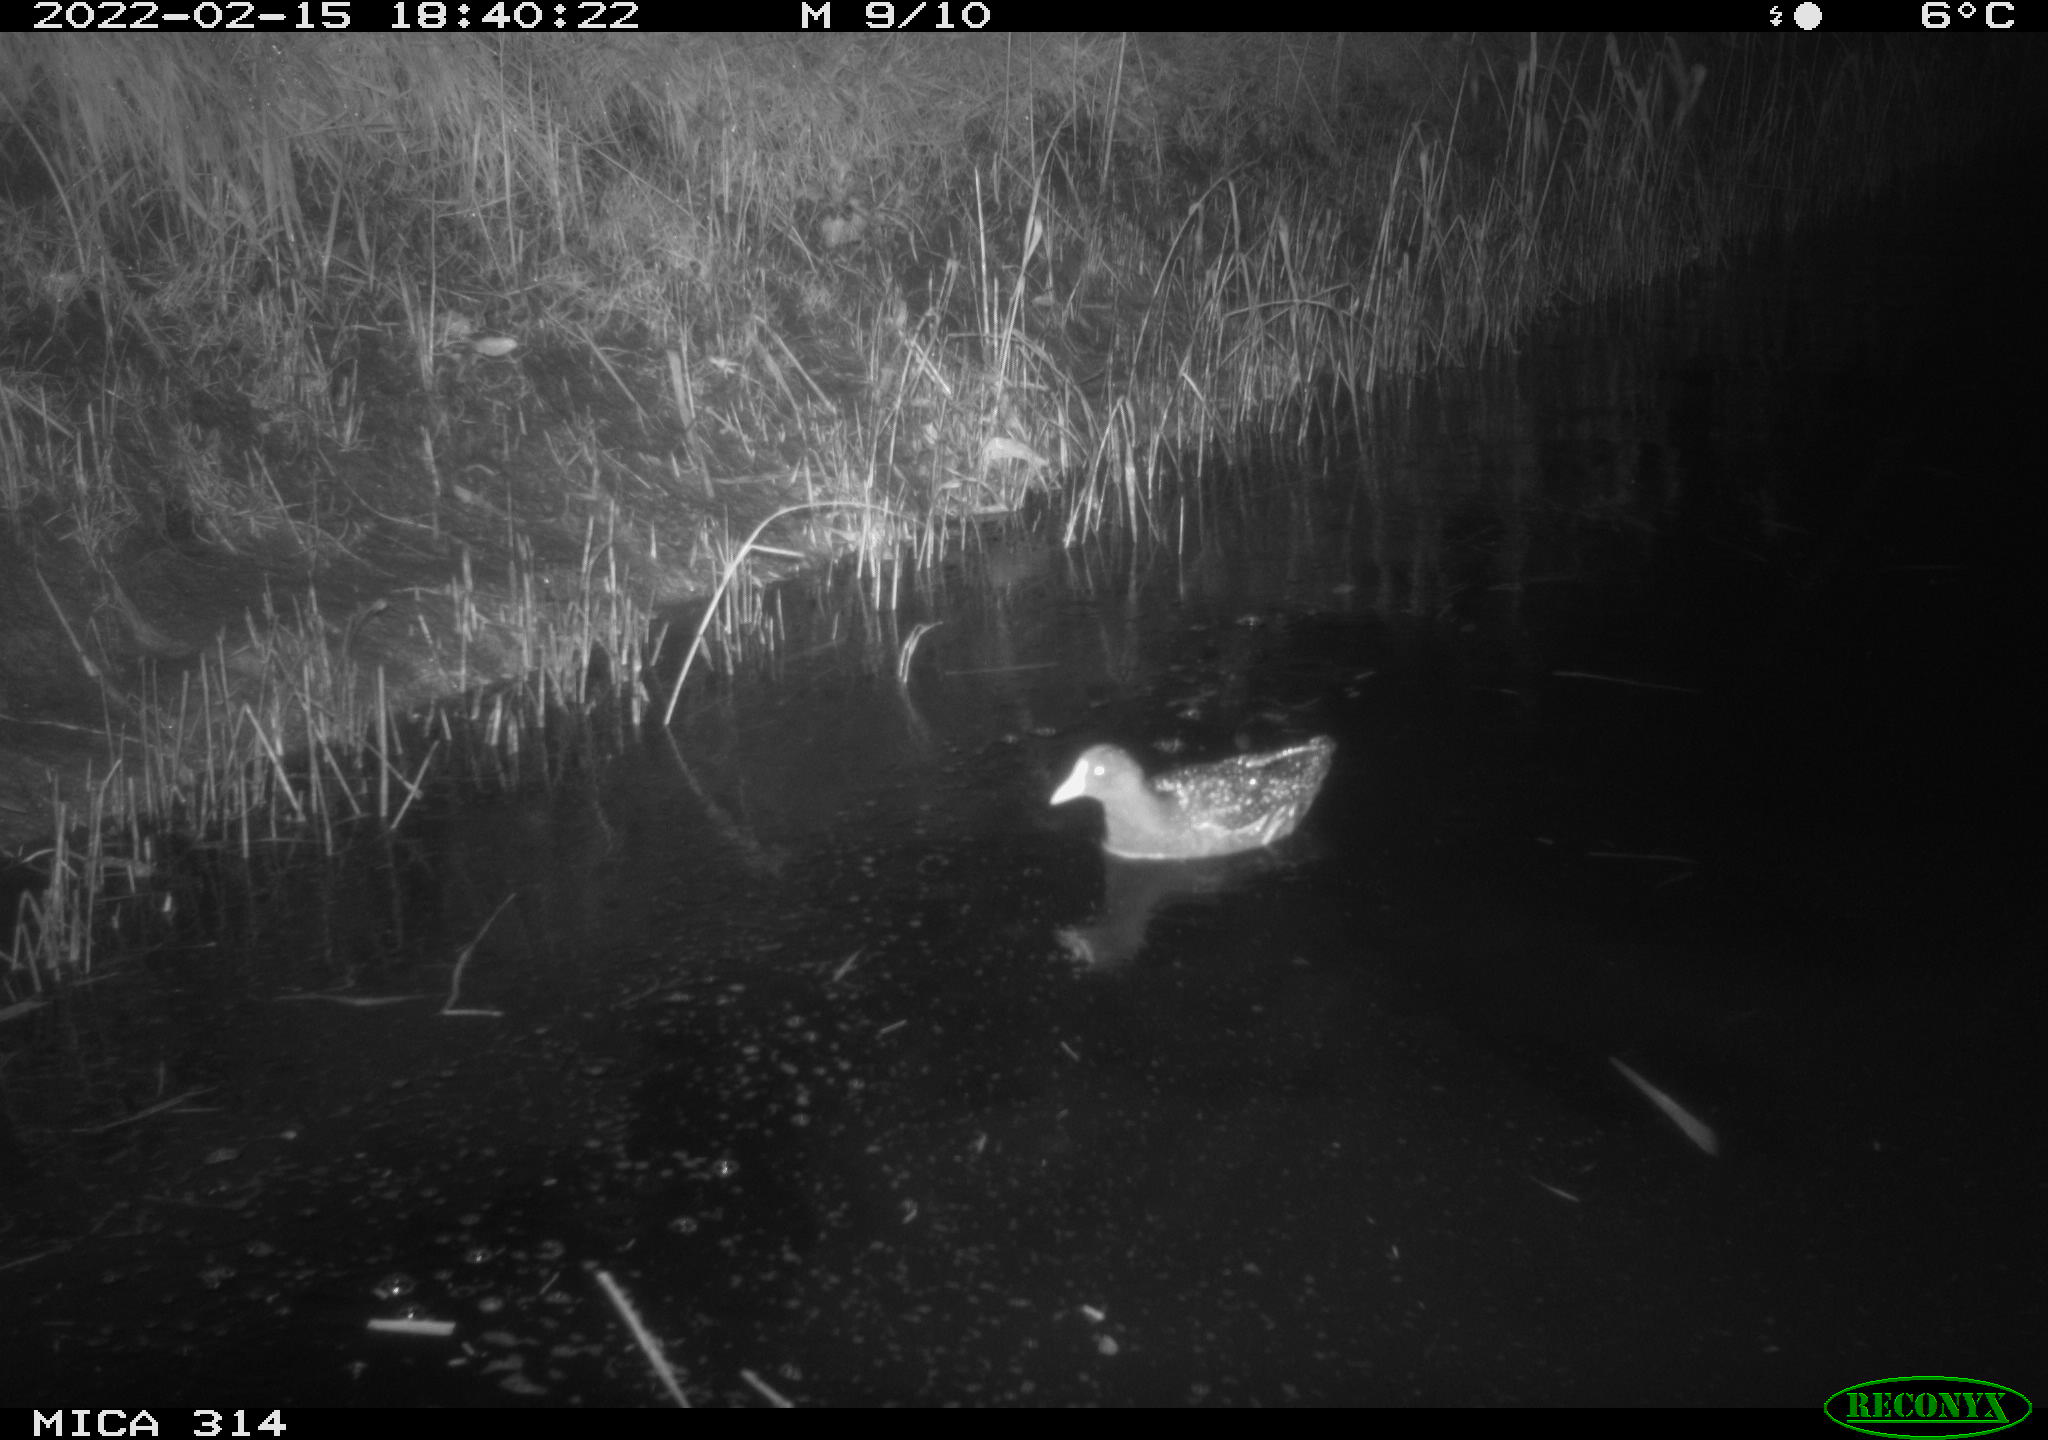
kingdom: Animalia
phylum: Chordata
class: Aves
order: Gruiformes
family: Rallidae
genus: Gallinula
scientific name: Gallinula chloropus
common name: Common moorhen
